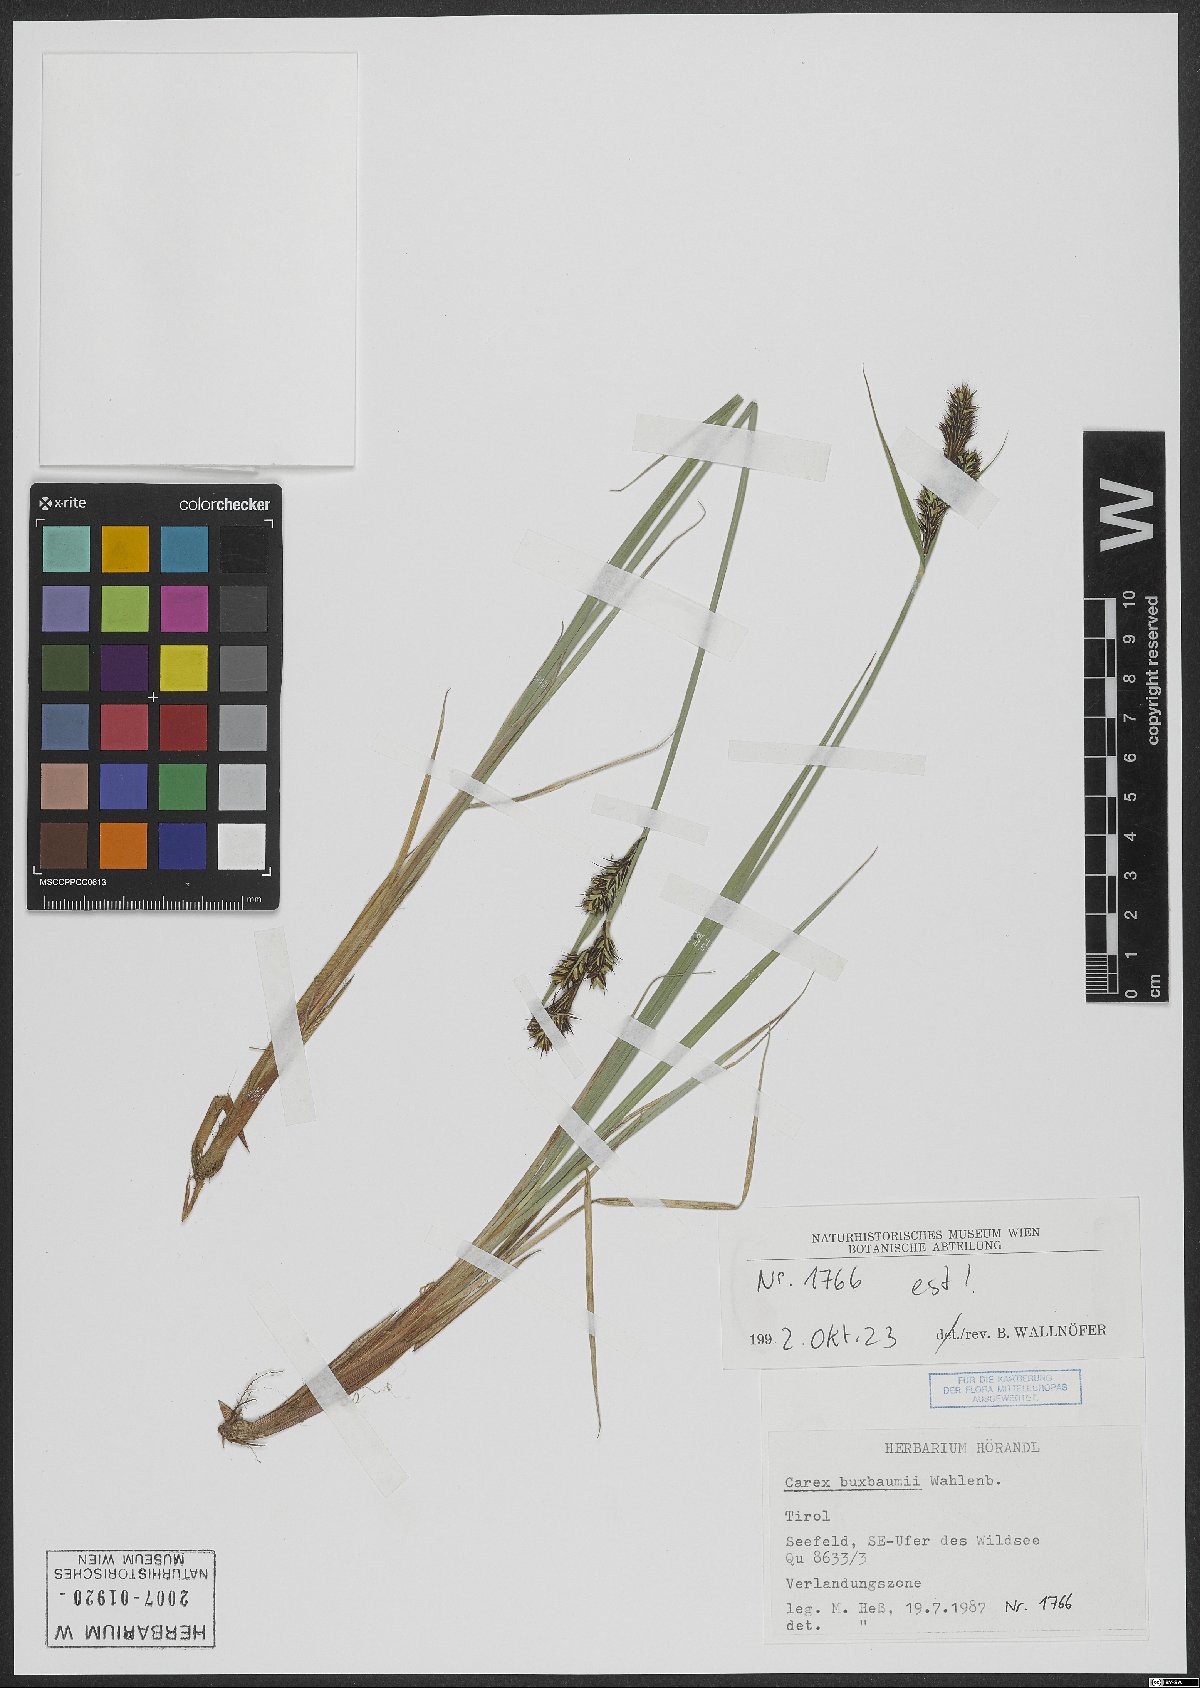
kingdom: Plantae
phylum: Tracheophyta
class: Liliopsida
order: Poales
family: Cyperaceae
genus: Carex
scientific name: Carex buxbaumii
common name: Club sedge
